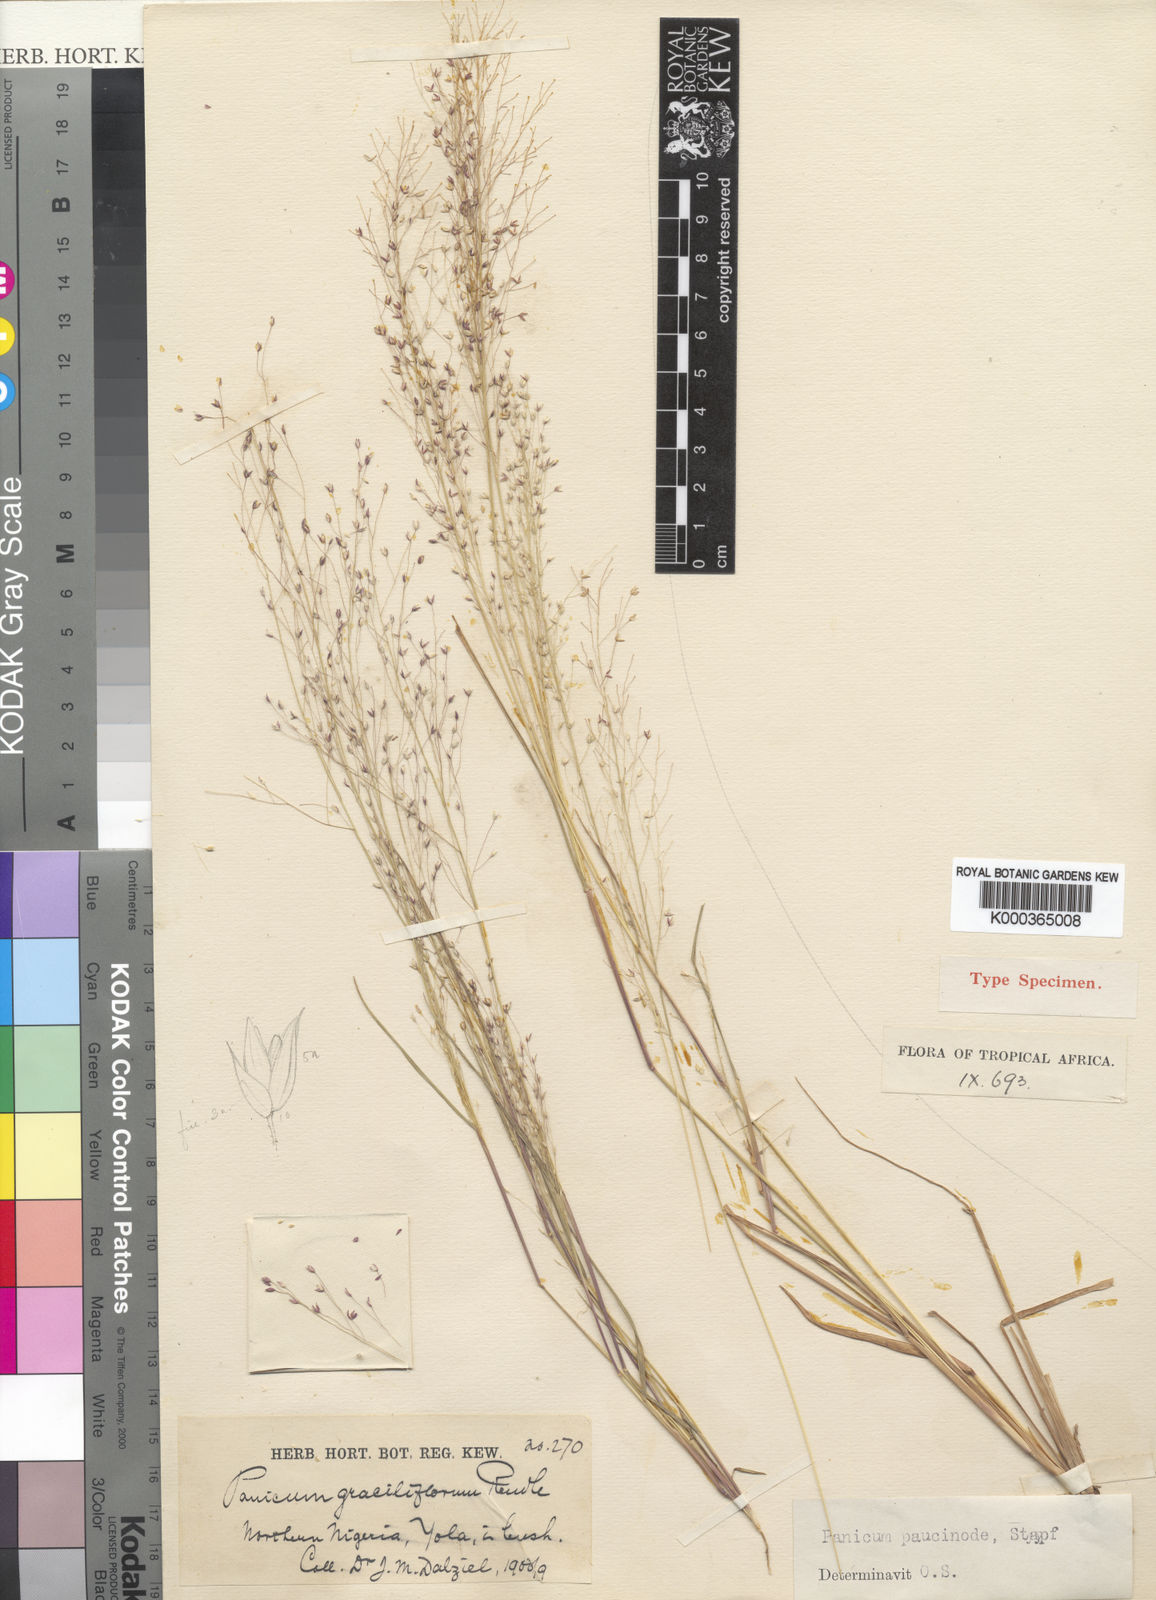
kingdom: Plantae
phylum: Tracheophyta
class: Liliopsida
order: Poales
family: Poaceae
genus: Panicum
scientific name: Panicum paucinode
